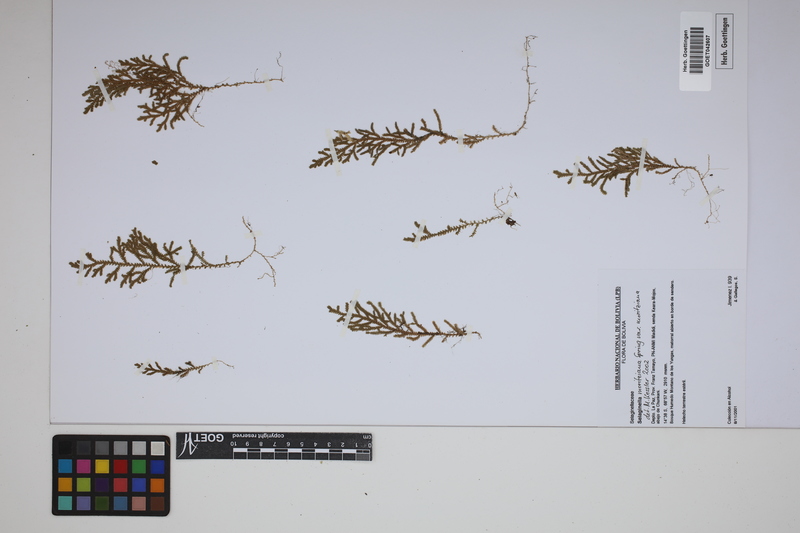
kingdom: Plantae
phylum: Tracheophyta
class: Lycopodiopsida
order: Selaginellales
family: Selaginellaceae
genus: Selaginella
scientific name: Selaginella moritziana
